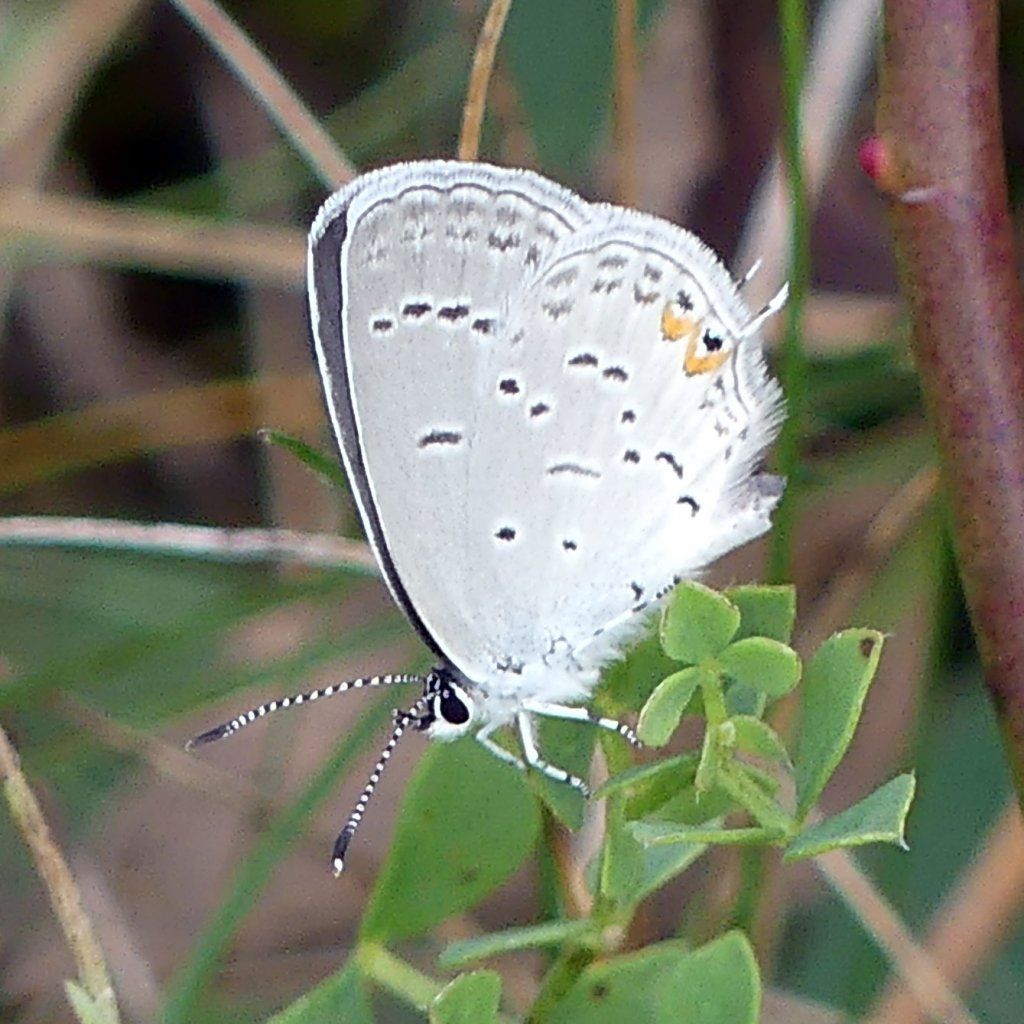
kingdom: Animalia
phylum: Arthropoda
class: Insecta
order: Lepidoptera
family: Lycaenidae
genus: Elkalyce
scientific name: Elkalyce comyntas
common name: Eastern Tailed-Blue
